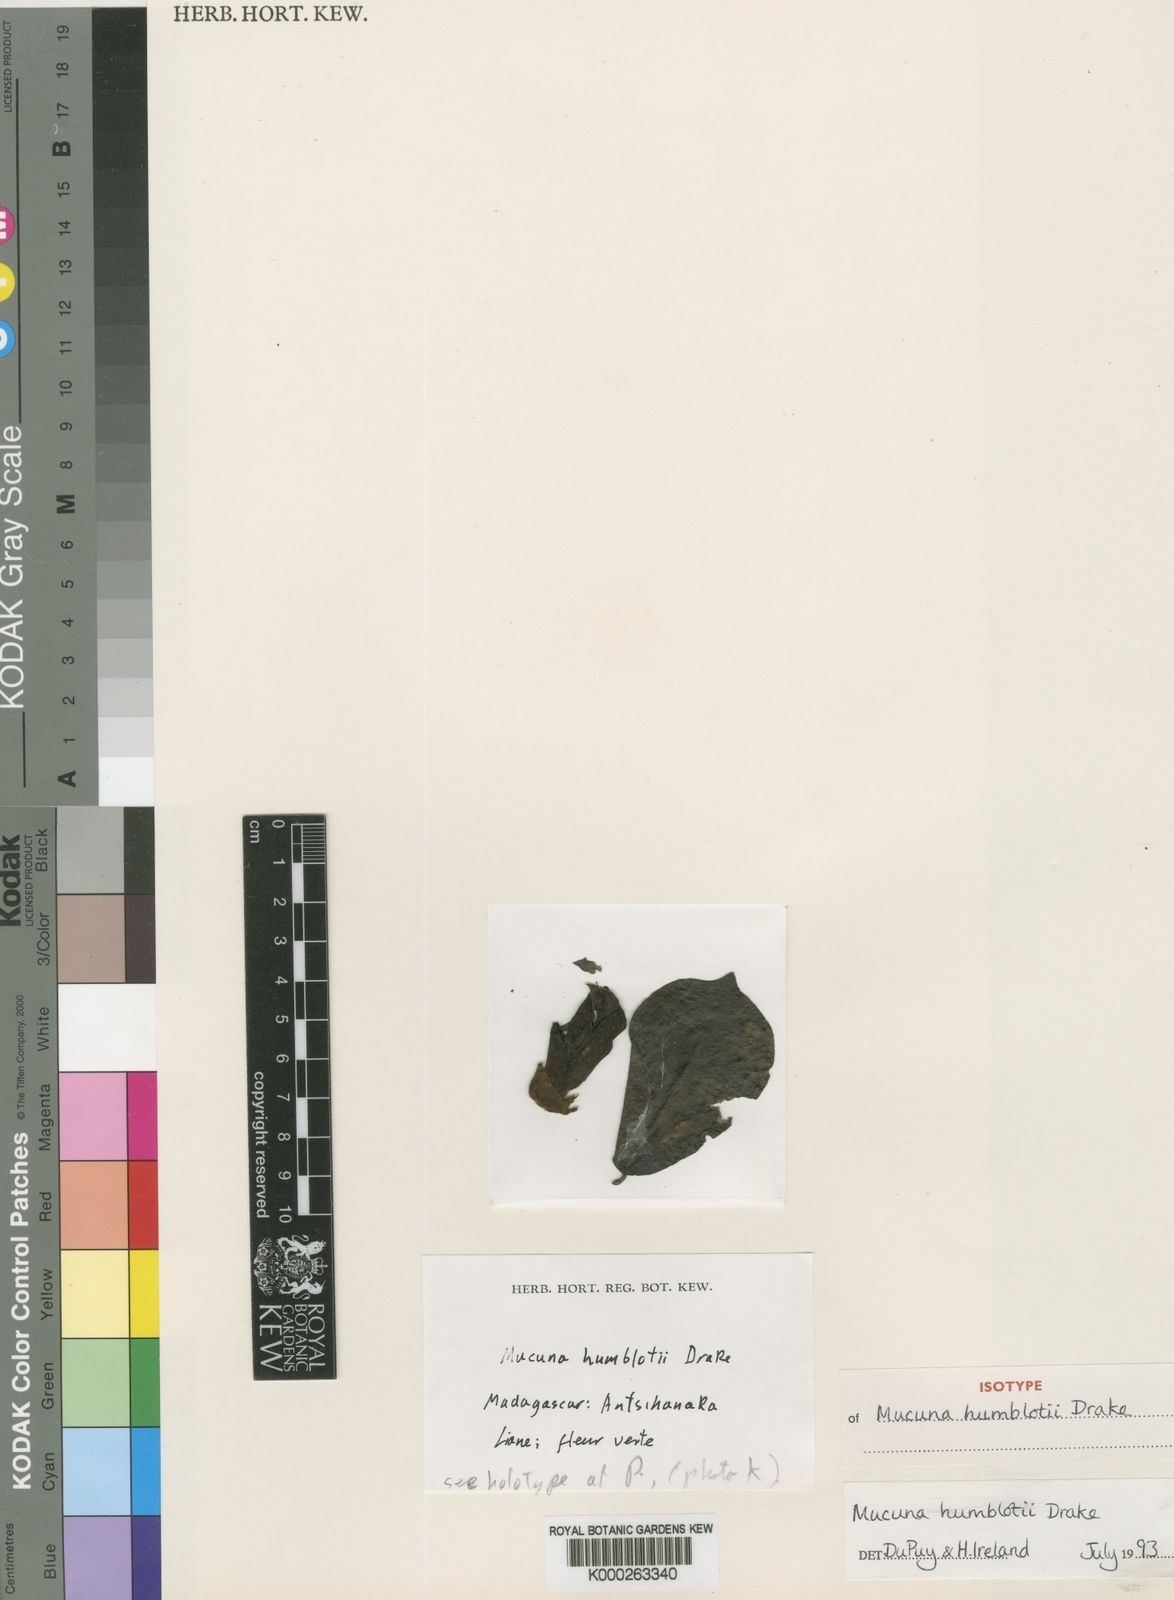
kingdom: Plantae
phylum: Tracheophyta
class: Magnoliopsida
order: Fabales
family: Fabaceae
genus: Mucuna
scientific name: Mucuna humblotii
